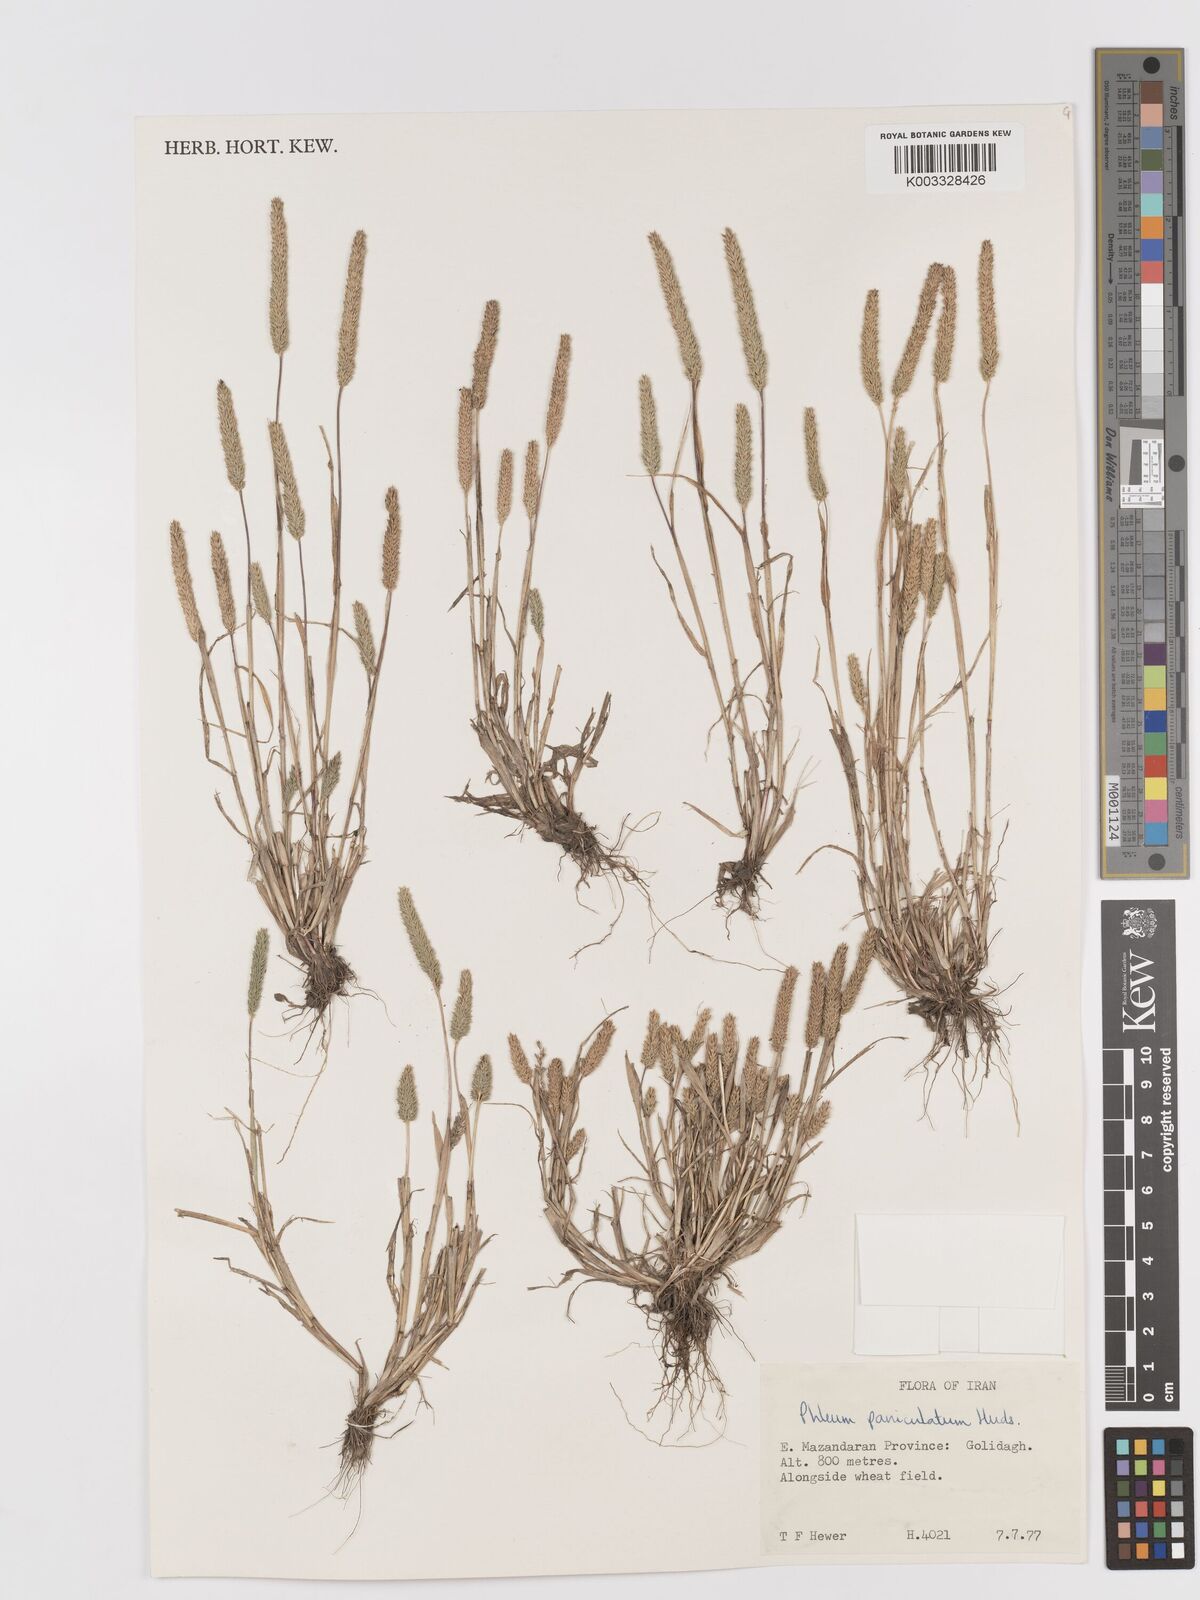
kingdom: Plantae
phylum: Tracheophyta
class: Liliopsida
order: Poales
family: Poaceae
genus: Phleum
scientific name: Phleum paniculatum
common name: British timothy
